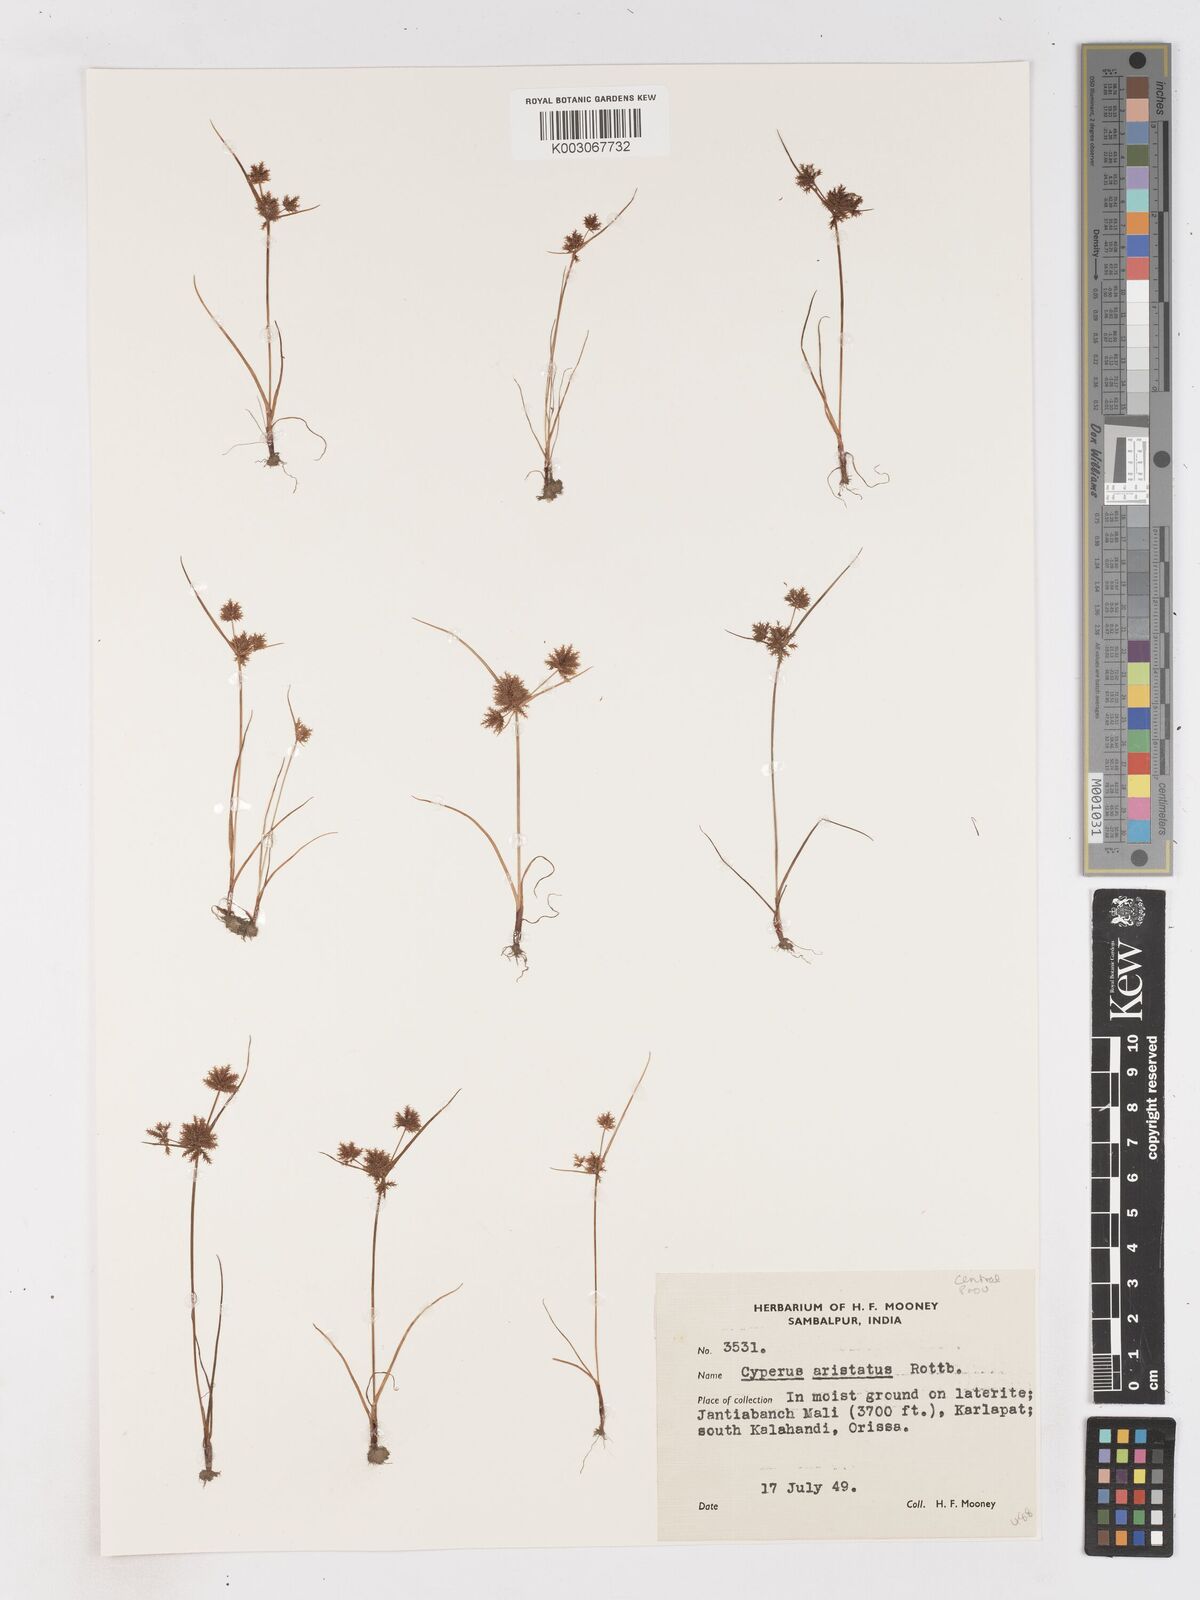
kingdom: Plantae
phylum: Tracheophyta
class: Liliopsida
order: Poales
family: Cyperaceae
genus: Cyperus
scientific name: Cyperus squarrosus
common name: Awned cyperus
